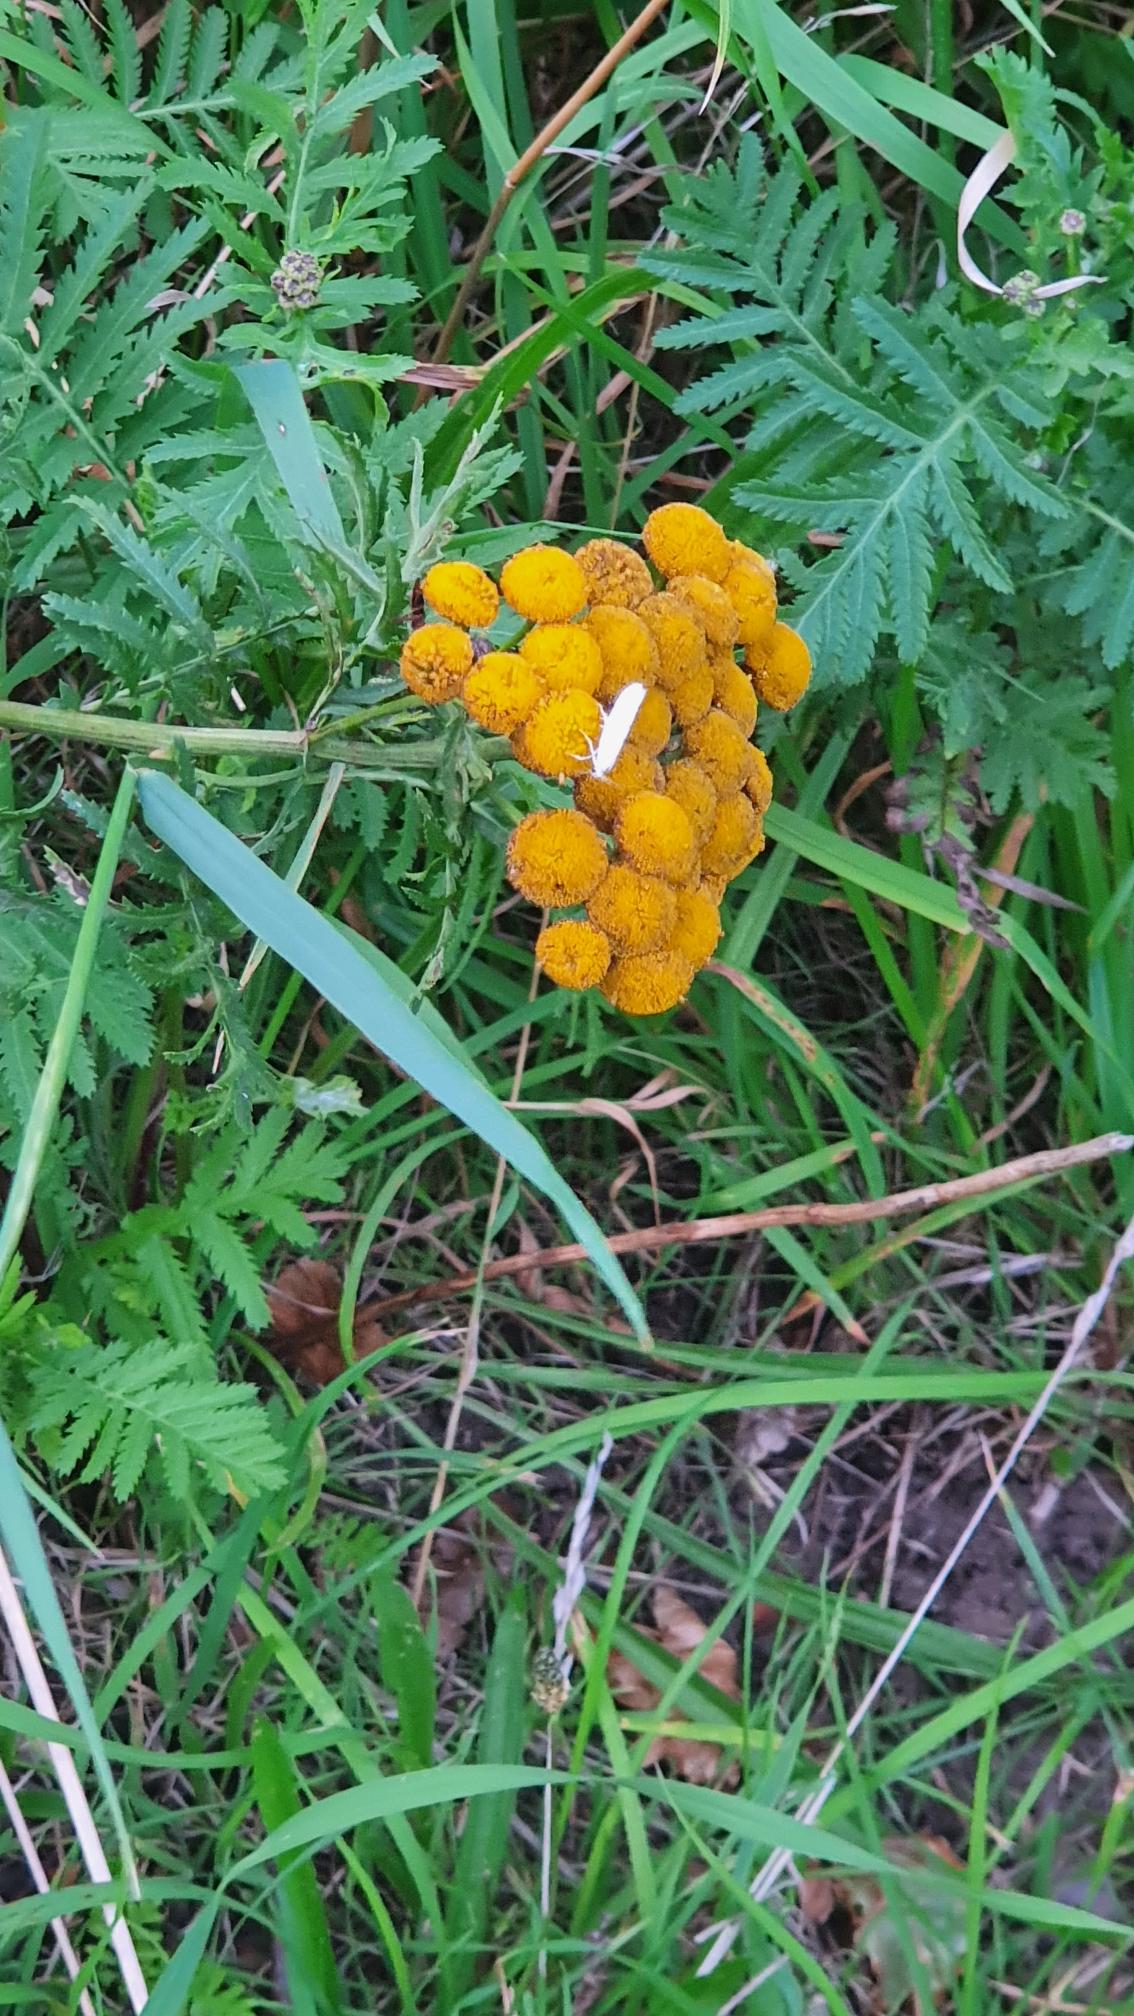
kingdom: Plantae
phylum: Tracheophyta
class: Magnoliopsida
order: Asterales
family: Asteraceae
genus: Tanacetum
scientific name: Tanacetum vulgare
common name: Rejnfan
